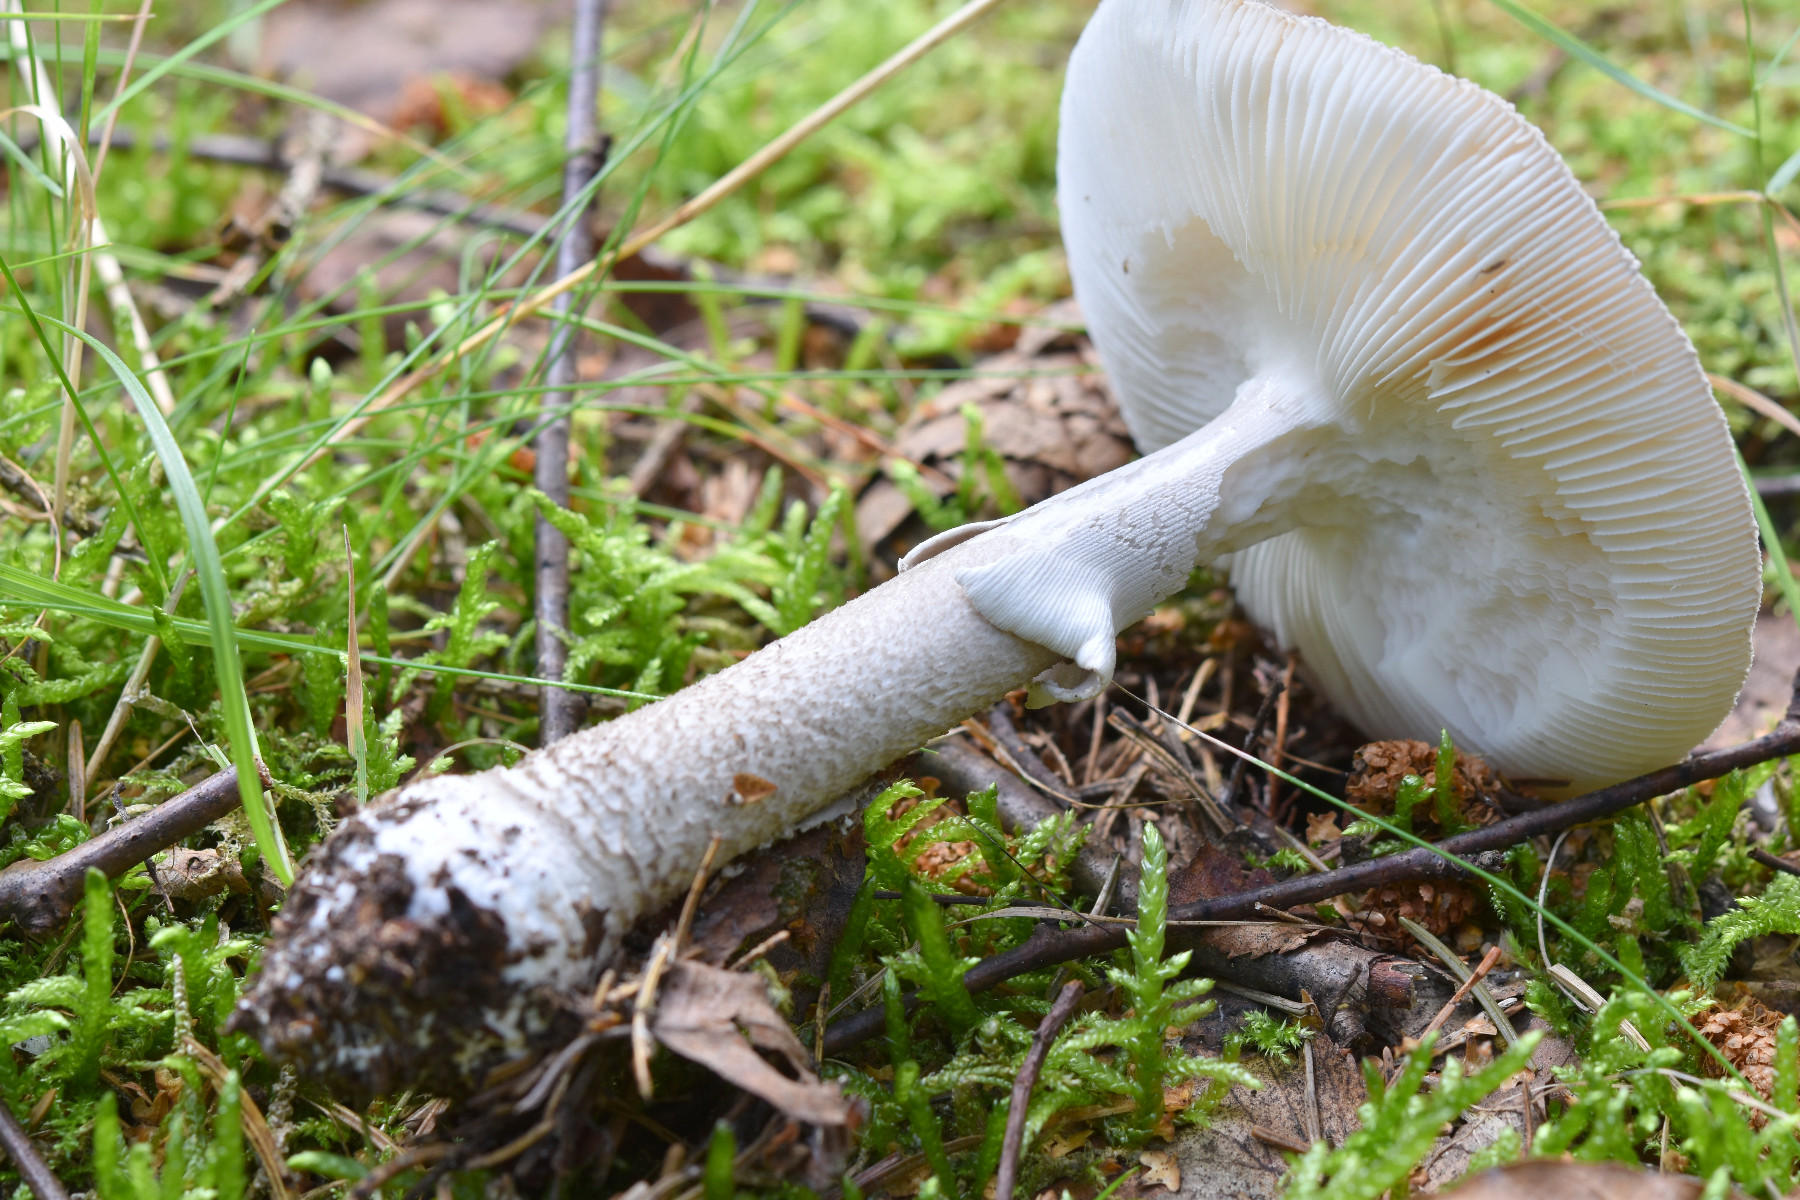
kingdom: Fungi
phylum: Basidiomycota
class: Agaricomycetes
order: Agaricales
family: Amanitaceae
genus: Amanita
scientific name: Amanita
